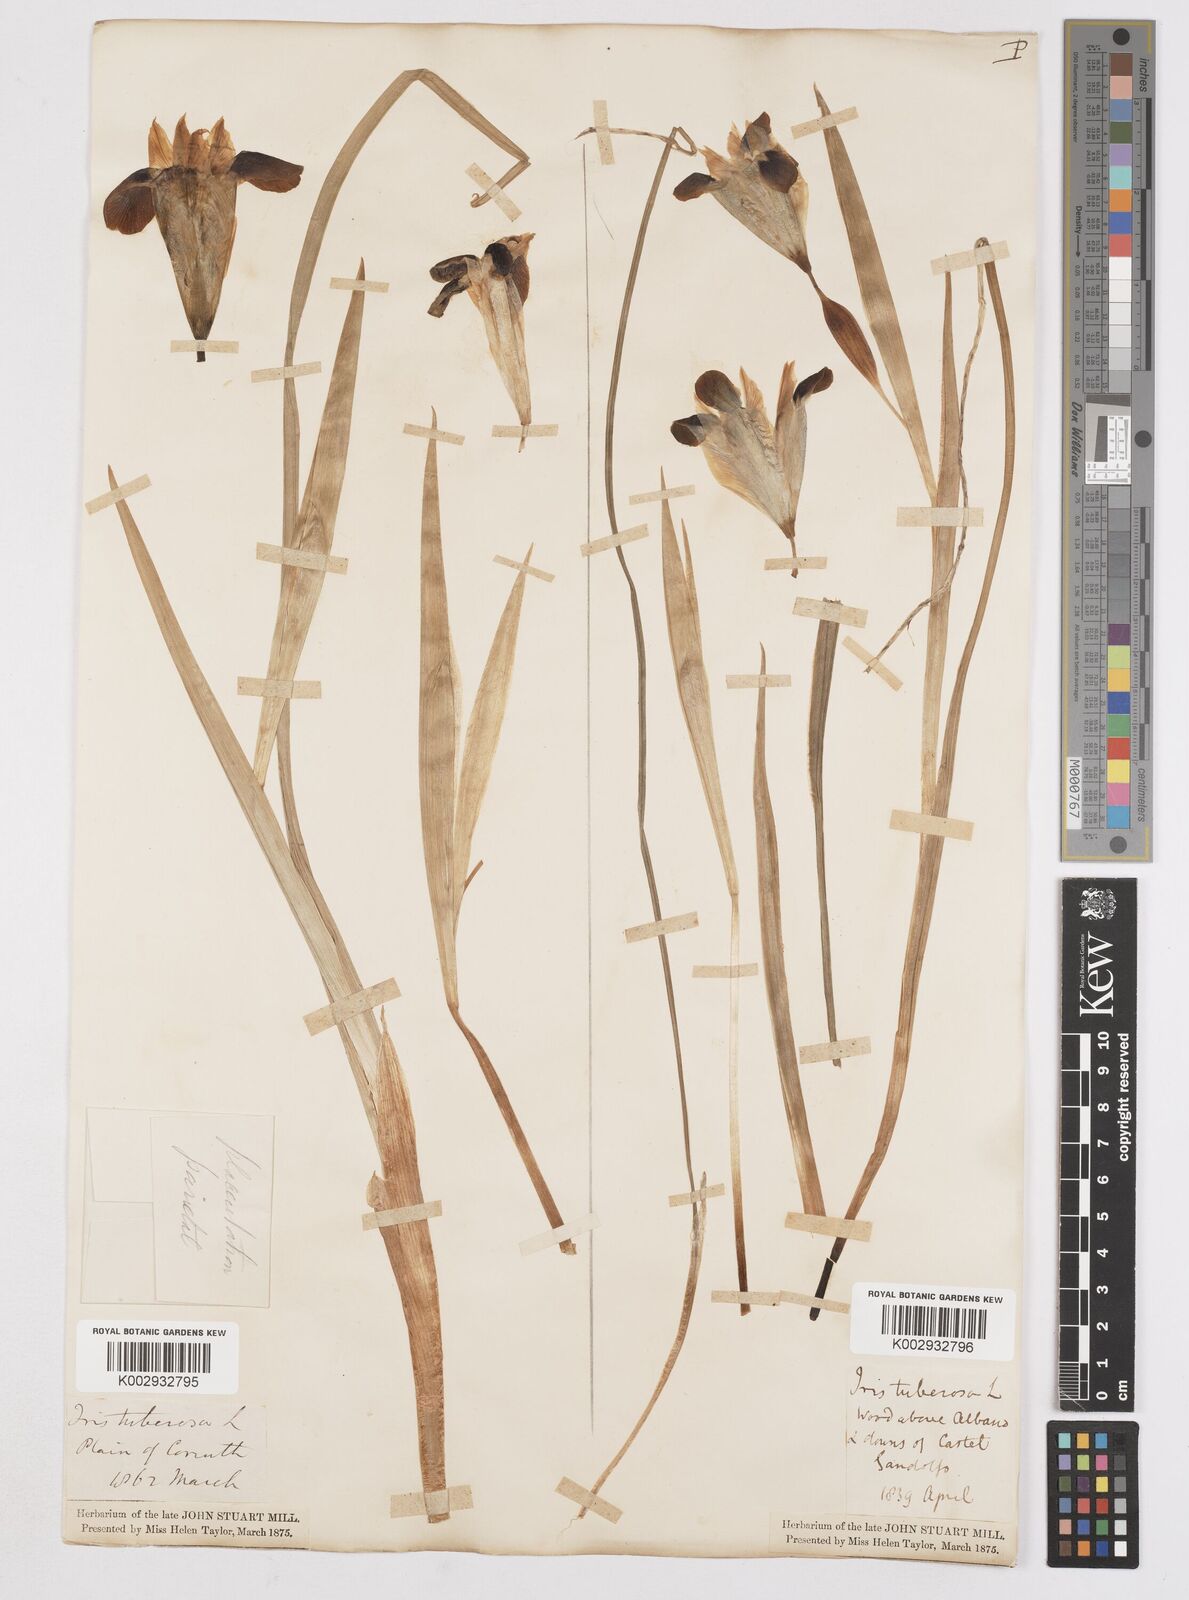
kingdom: Plantae
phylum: Tracheophyta
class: Liliopsida
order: Asparagales
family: Iridaceae
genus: Iris
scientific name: Iris tuberosa
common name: Snake's-head iris
